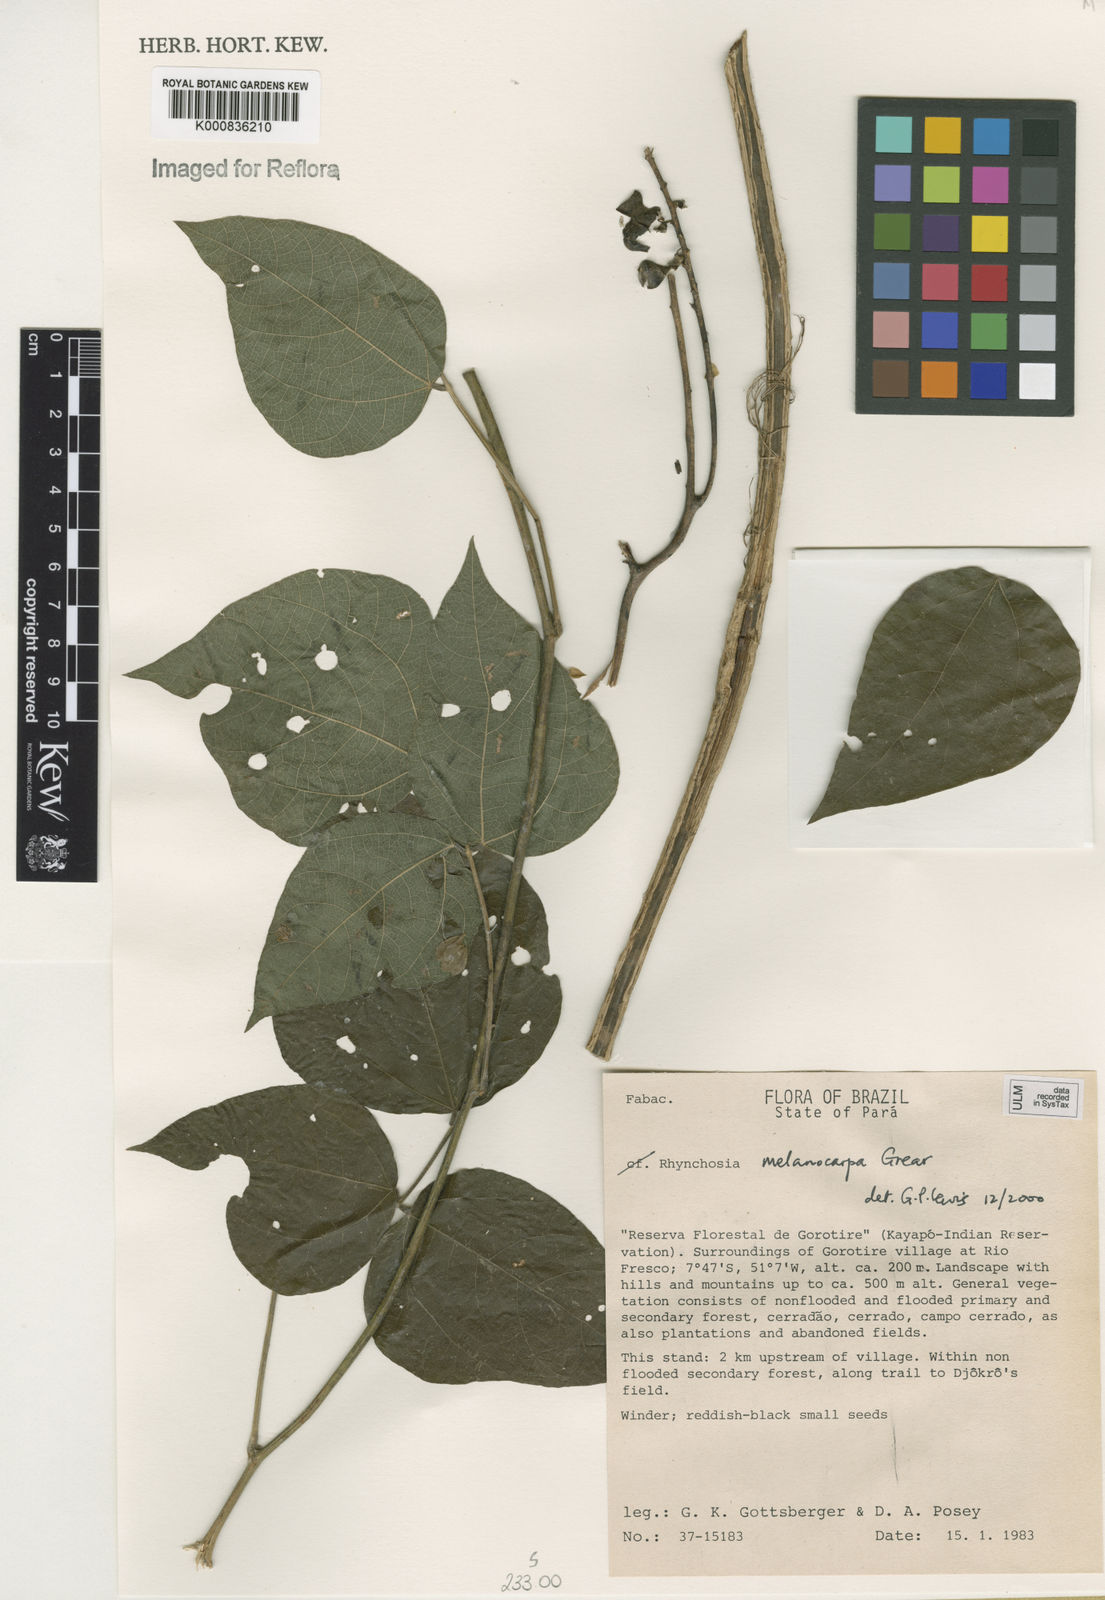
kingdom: Plantae
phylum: Tracheophyta
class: Magnoliopsida
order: Fabales
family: Fabaceae
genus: Rhynchosia
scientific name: Rhynchosia melanocarpa
